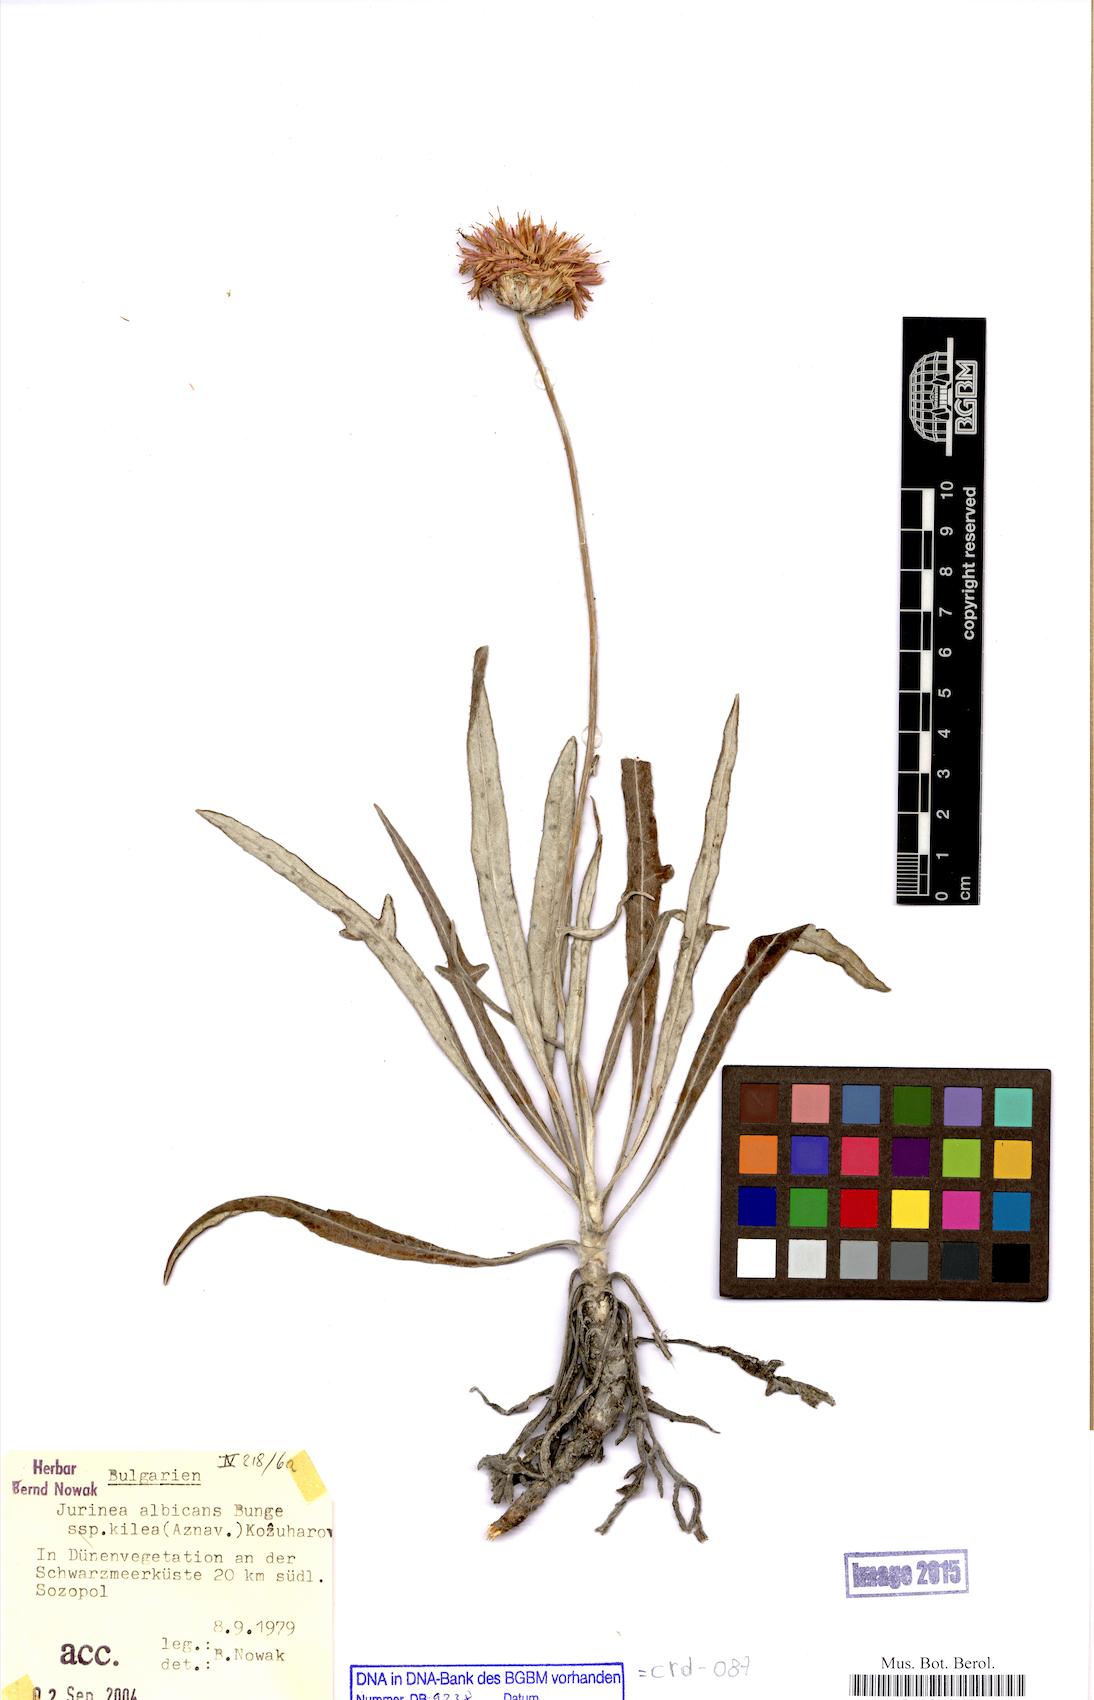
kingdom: Plantae
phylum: Tracheophyta
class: Magnoliopsida
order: Asterales
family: Asteraceae
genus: Jurinea
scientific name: Jurinea kilaea
